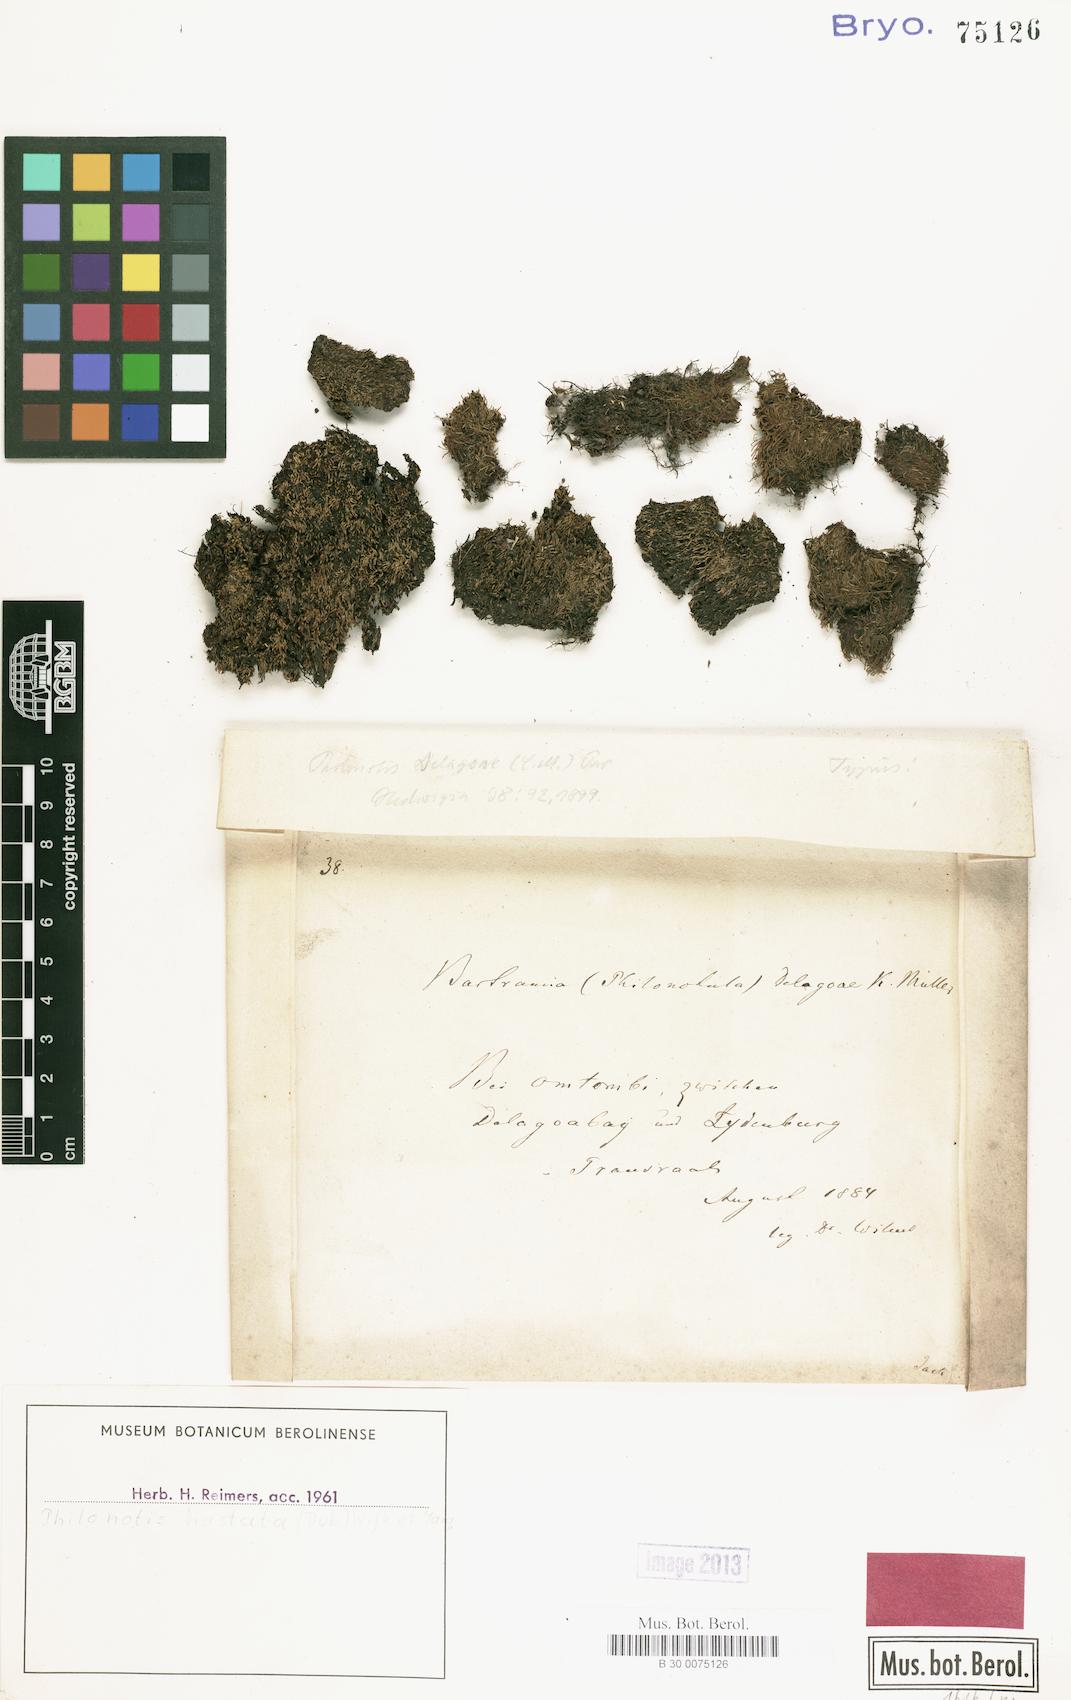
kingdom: Plantae
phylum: Bryophyta
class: Bryopsida
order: Bartramiales
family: Bartramiaceae
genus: Philonotis
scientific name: Philonotis hastata
